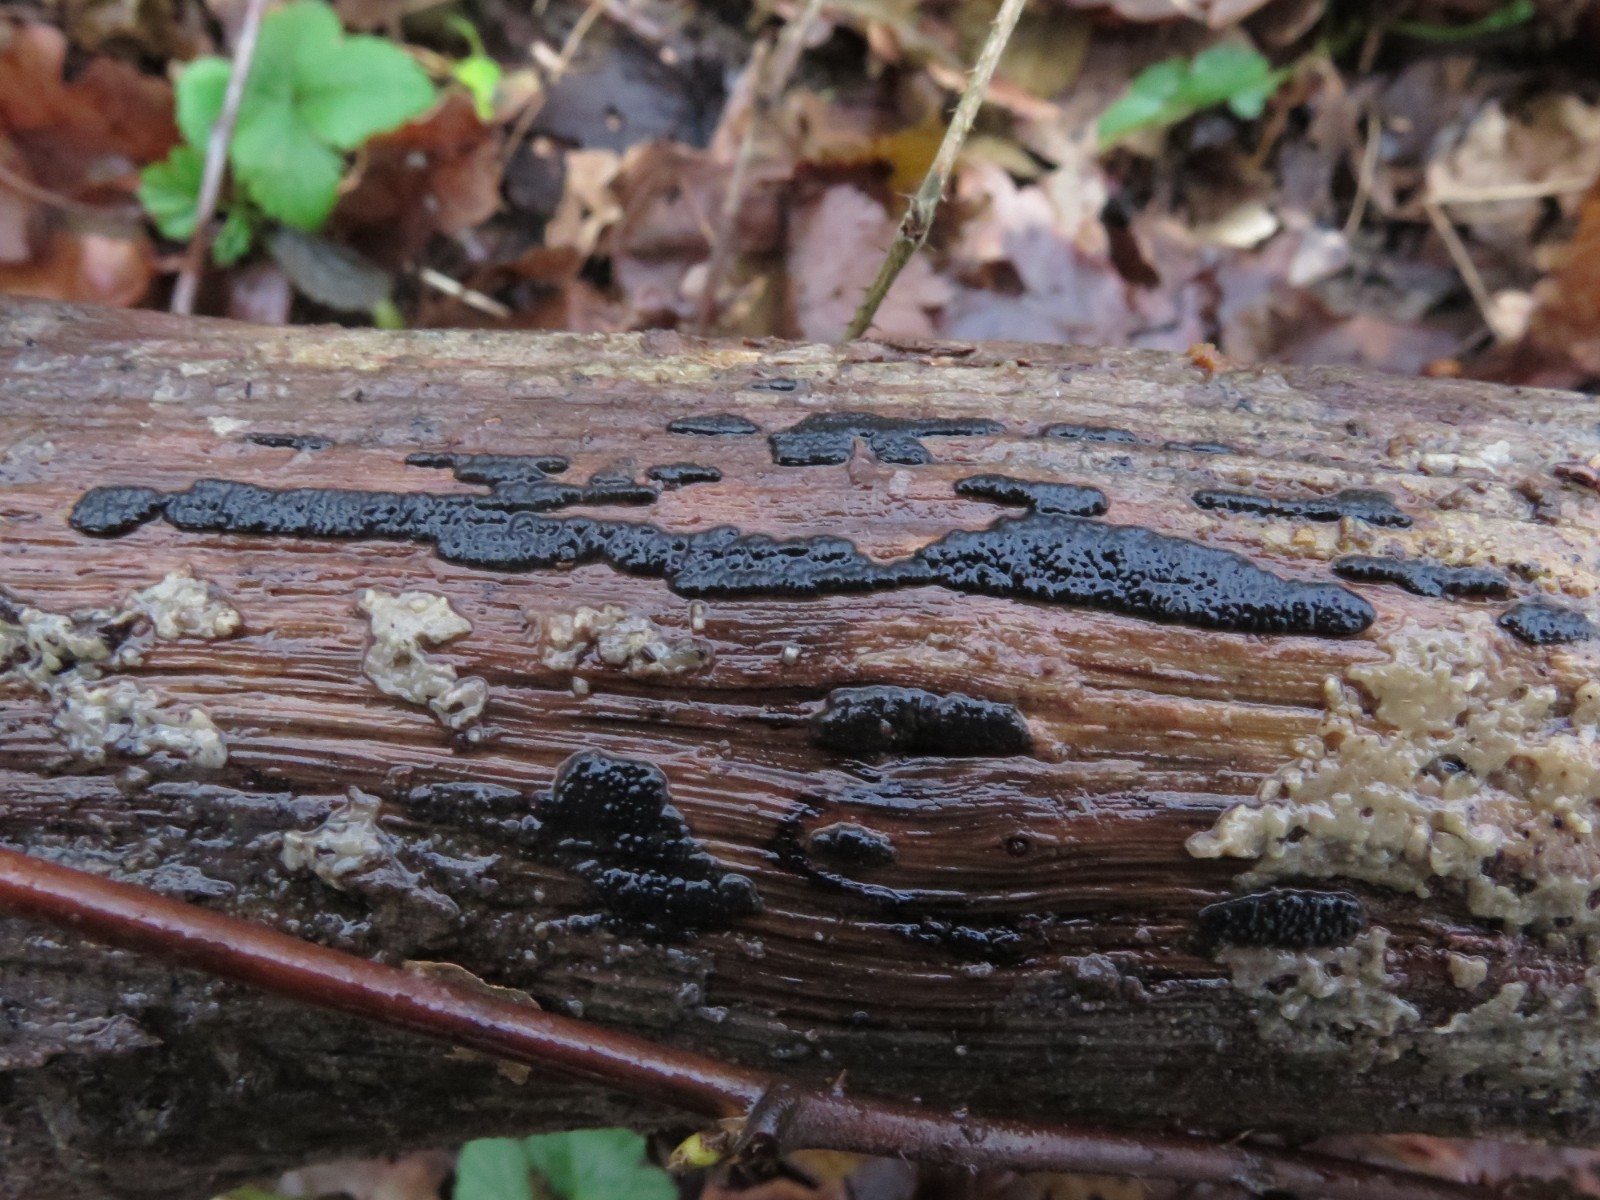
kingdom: Fungi
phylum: Ascomycota
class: Sordariomycetes
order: Xylariales
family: Xylariaceae
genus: Nemania
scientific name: Nemania serpens
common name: almindelig kuldyne
